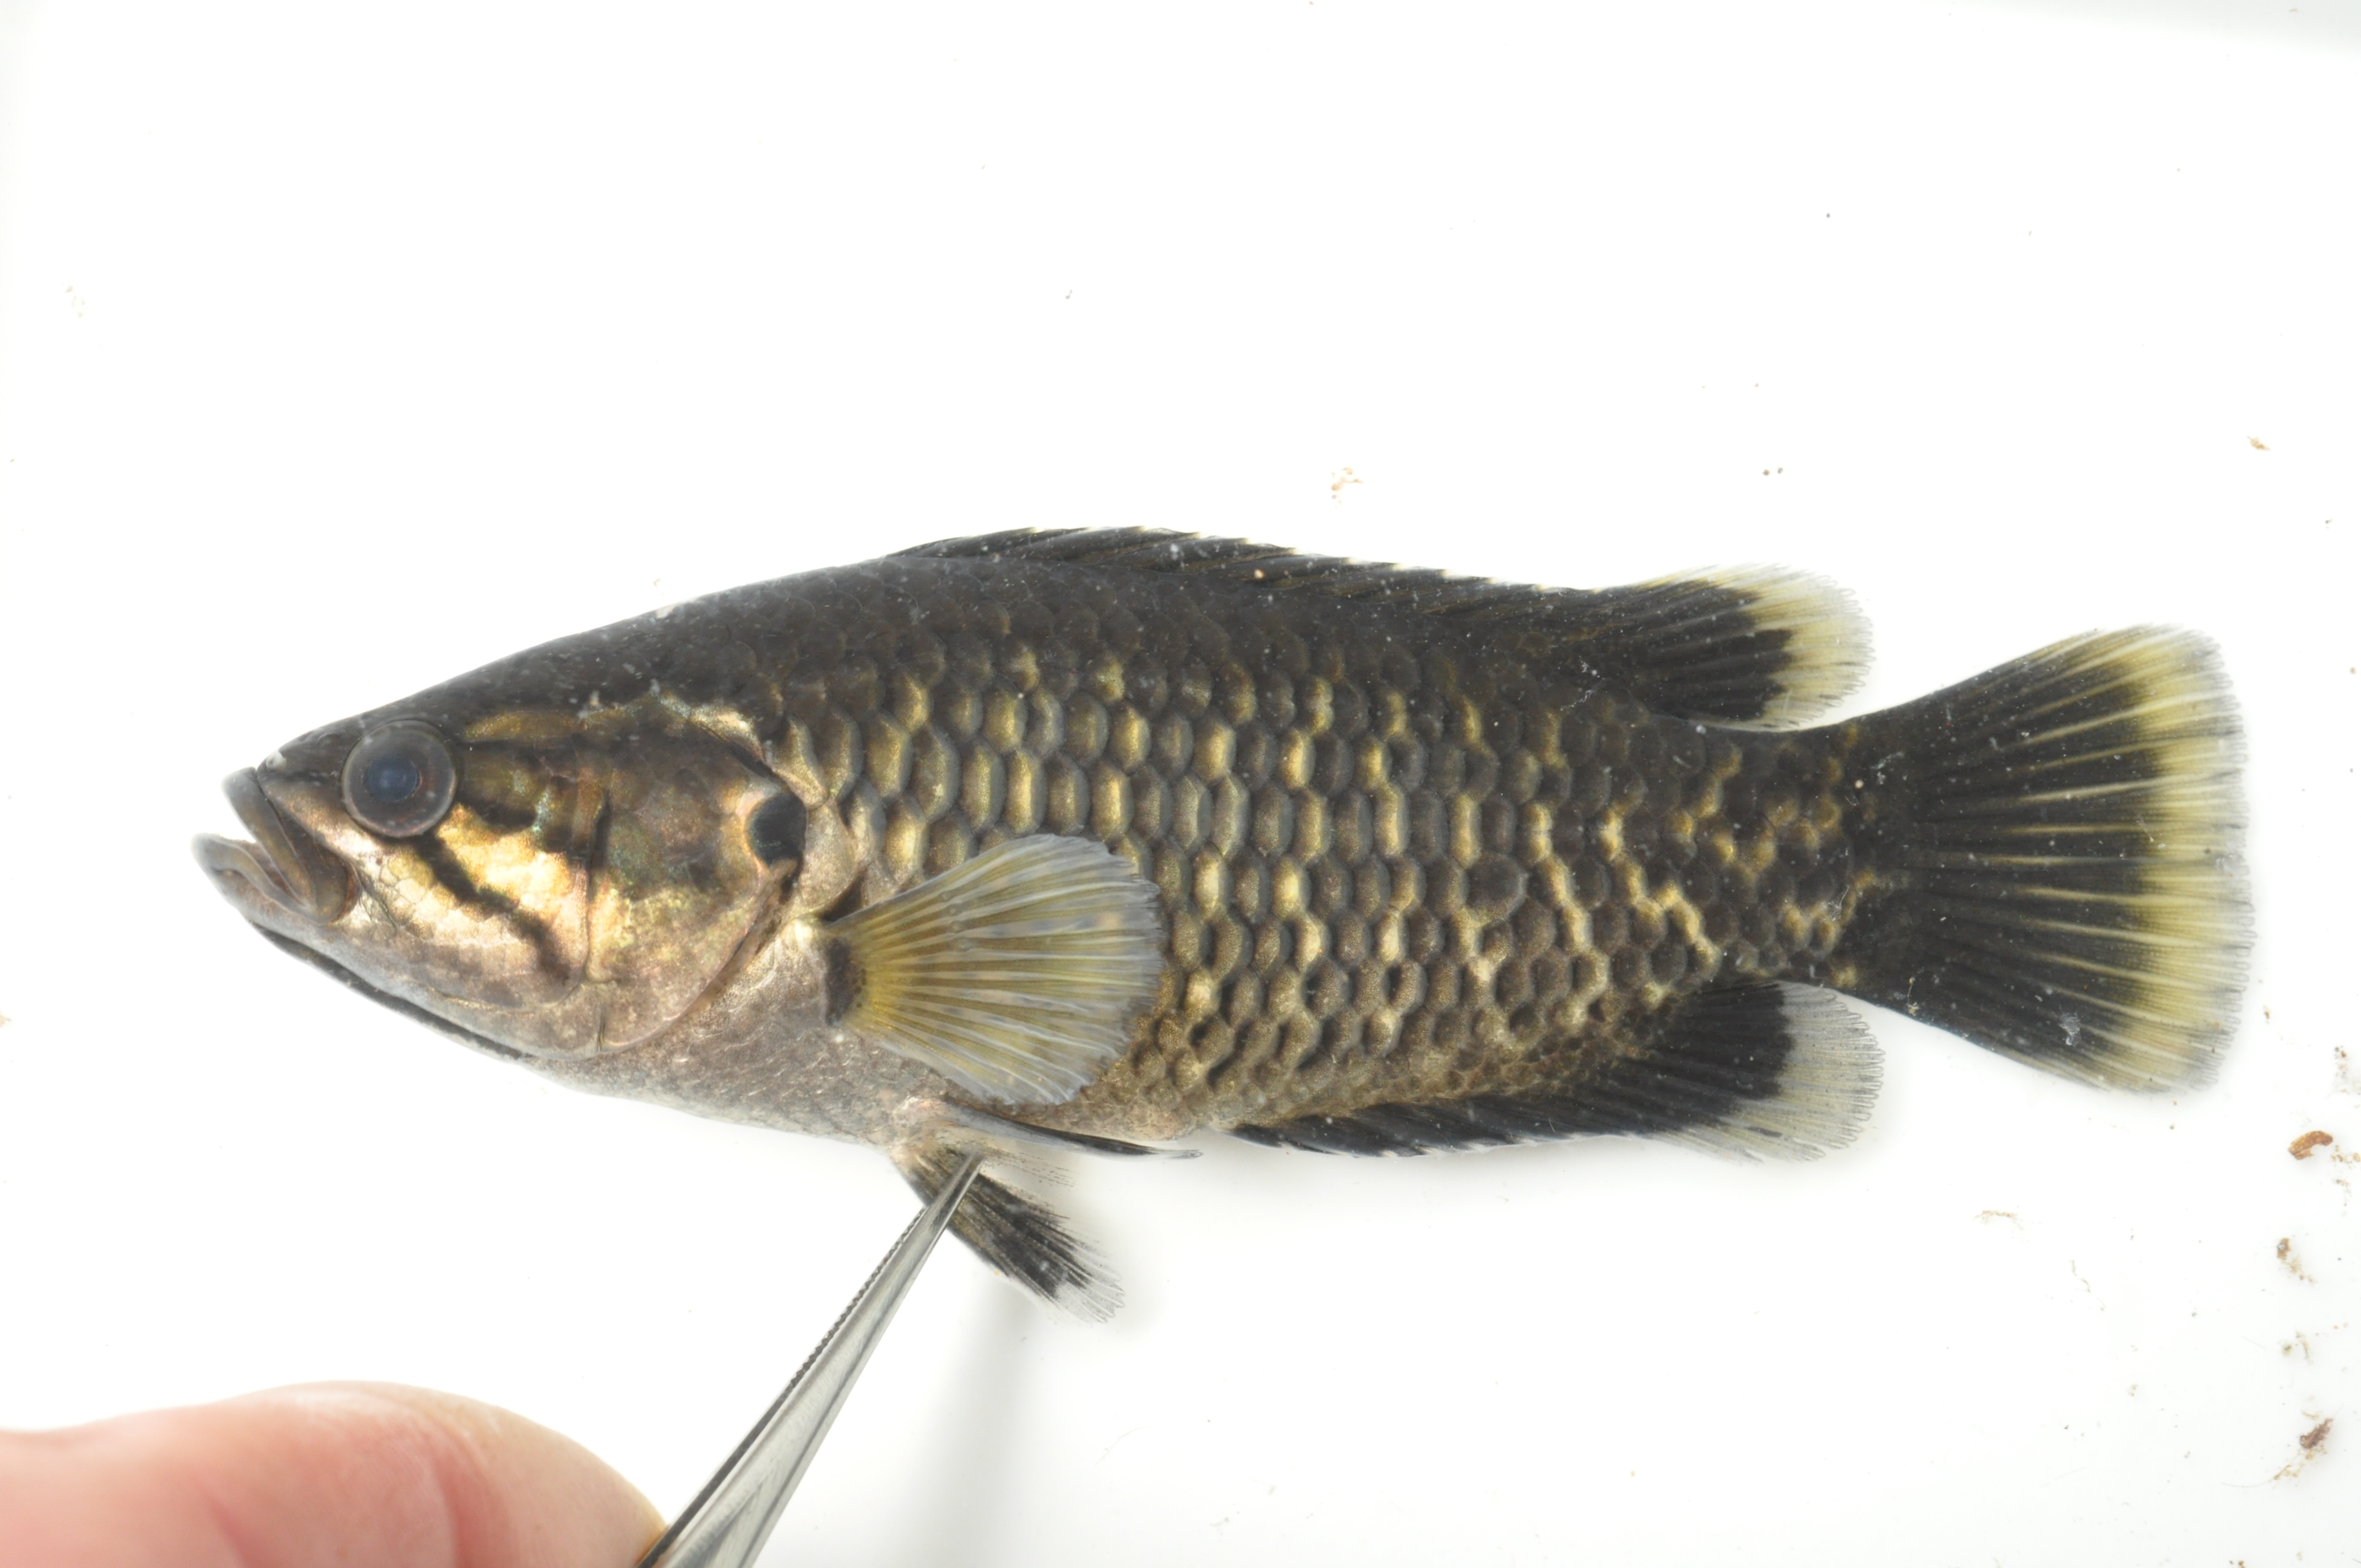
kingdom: Animalia
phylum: Chordata
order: Perciformes
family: Anabantidae
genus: Sandelia
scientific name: Sandelia capensis
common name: Cape kurper
